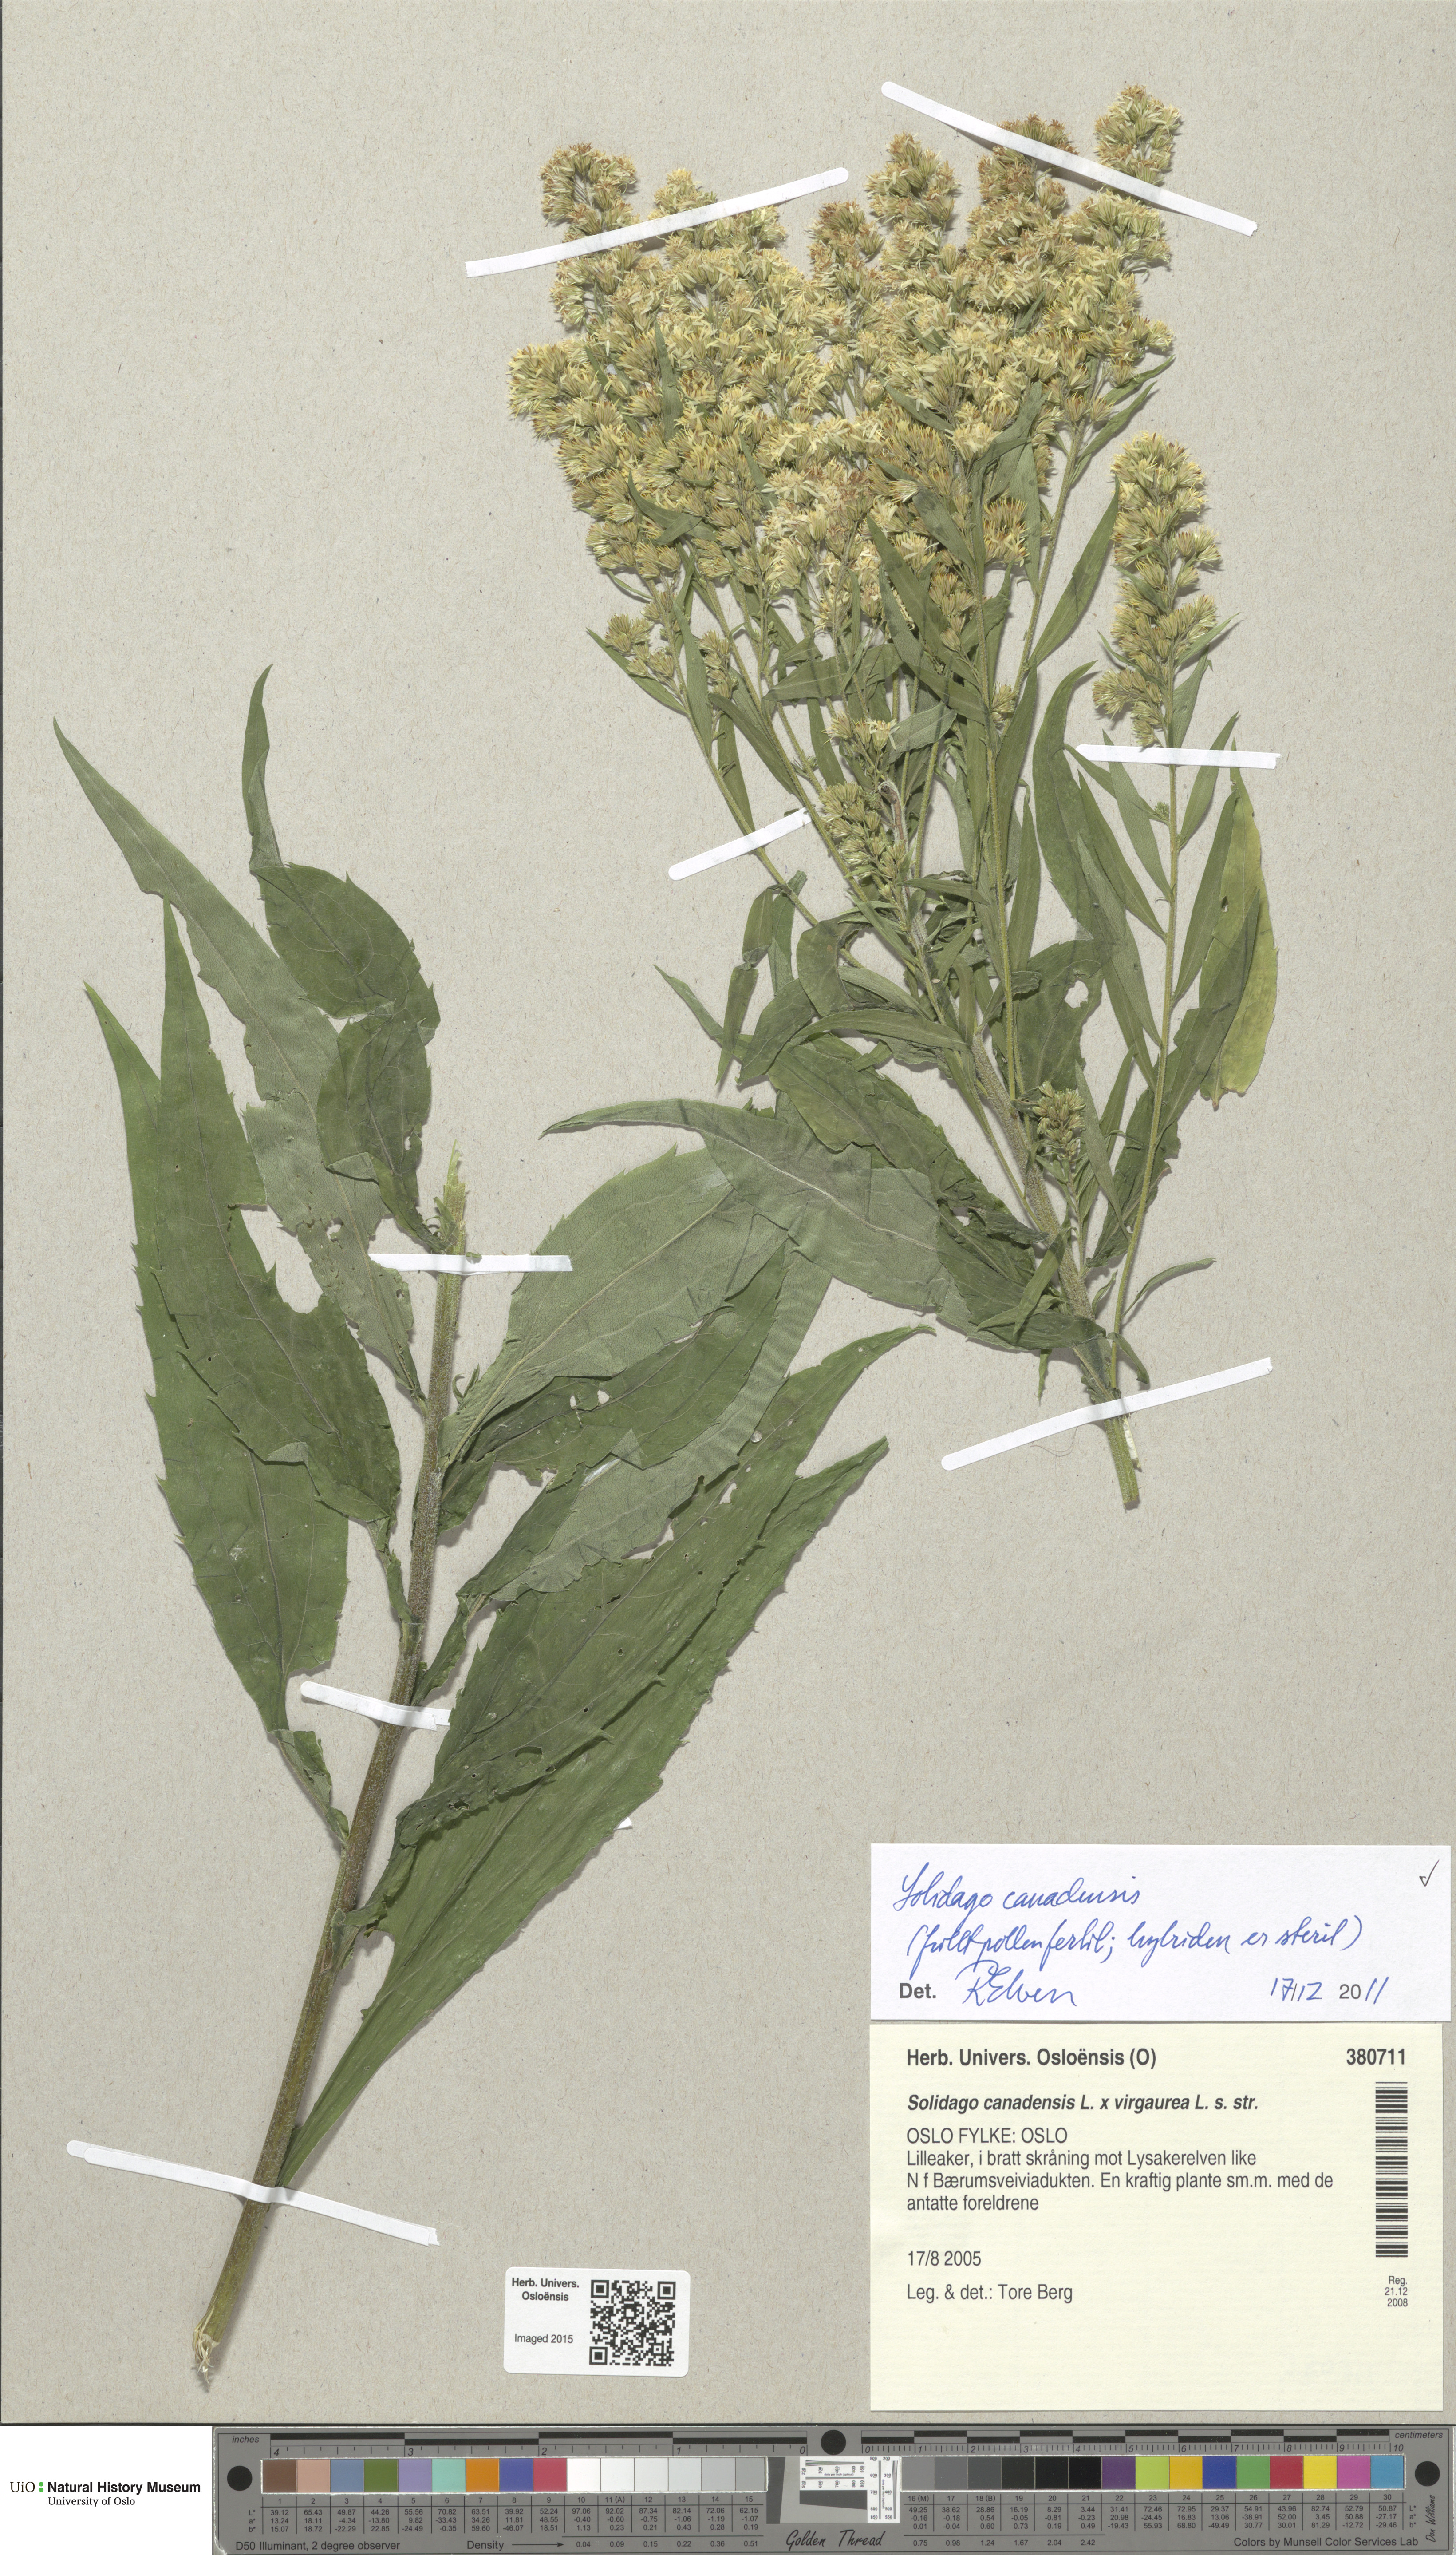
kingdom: Plantae
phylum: Tracheophyta
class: Magnoliopsida
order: Asterales
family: Asteraceae
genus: Solidago
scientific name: Solidago canadensis
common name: Canada goldenrod
